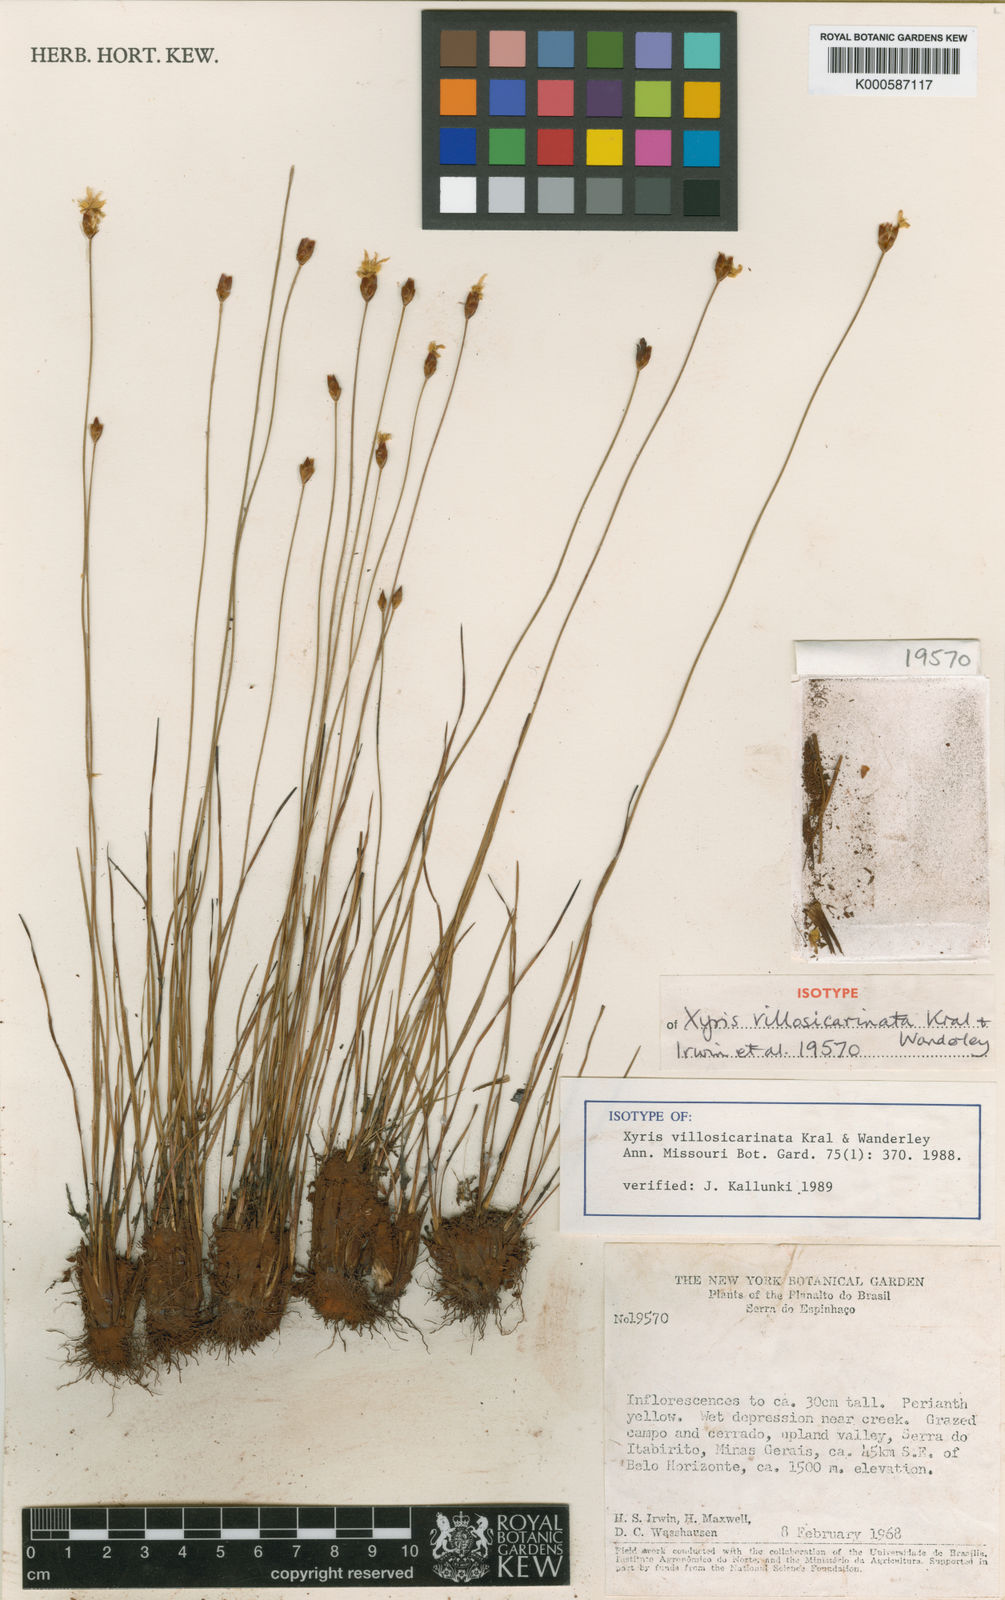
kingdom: Plantae
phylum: Tracheophyta
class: Liliopsida
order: Poales
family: Xyridaceae
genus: Xyris
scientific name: Xyris villosicarinata
